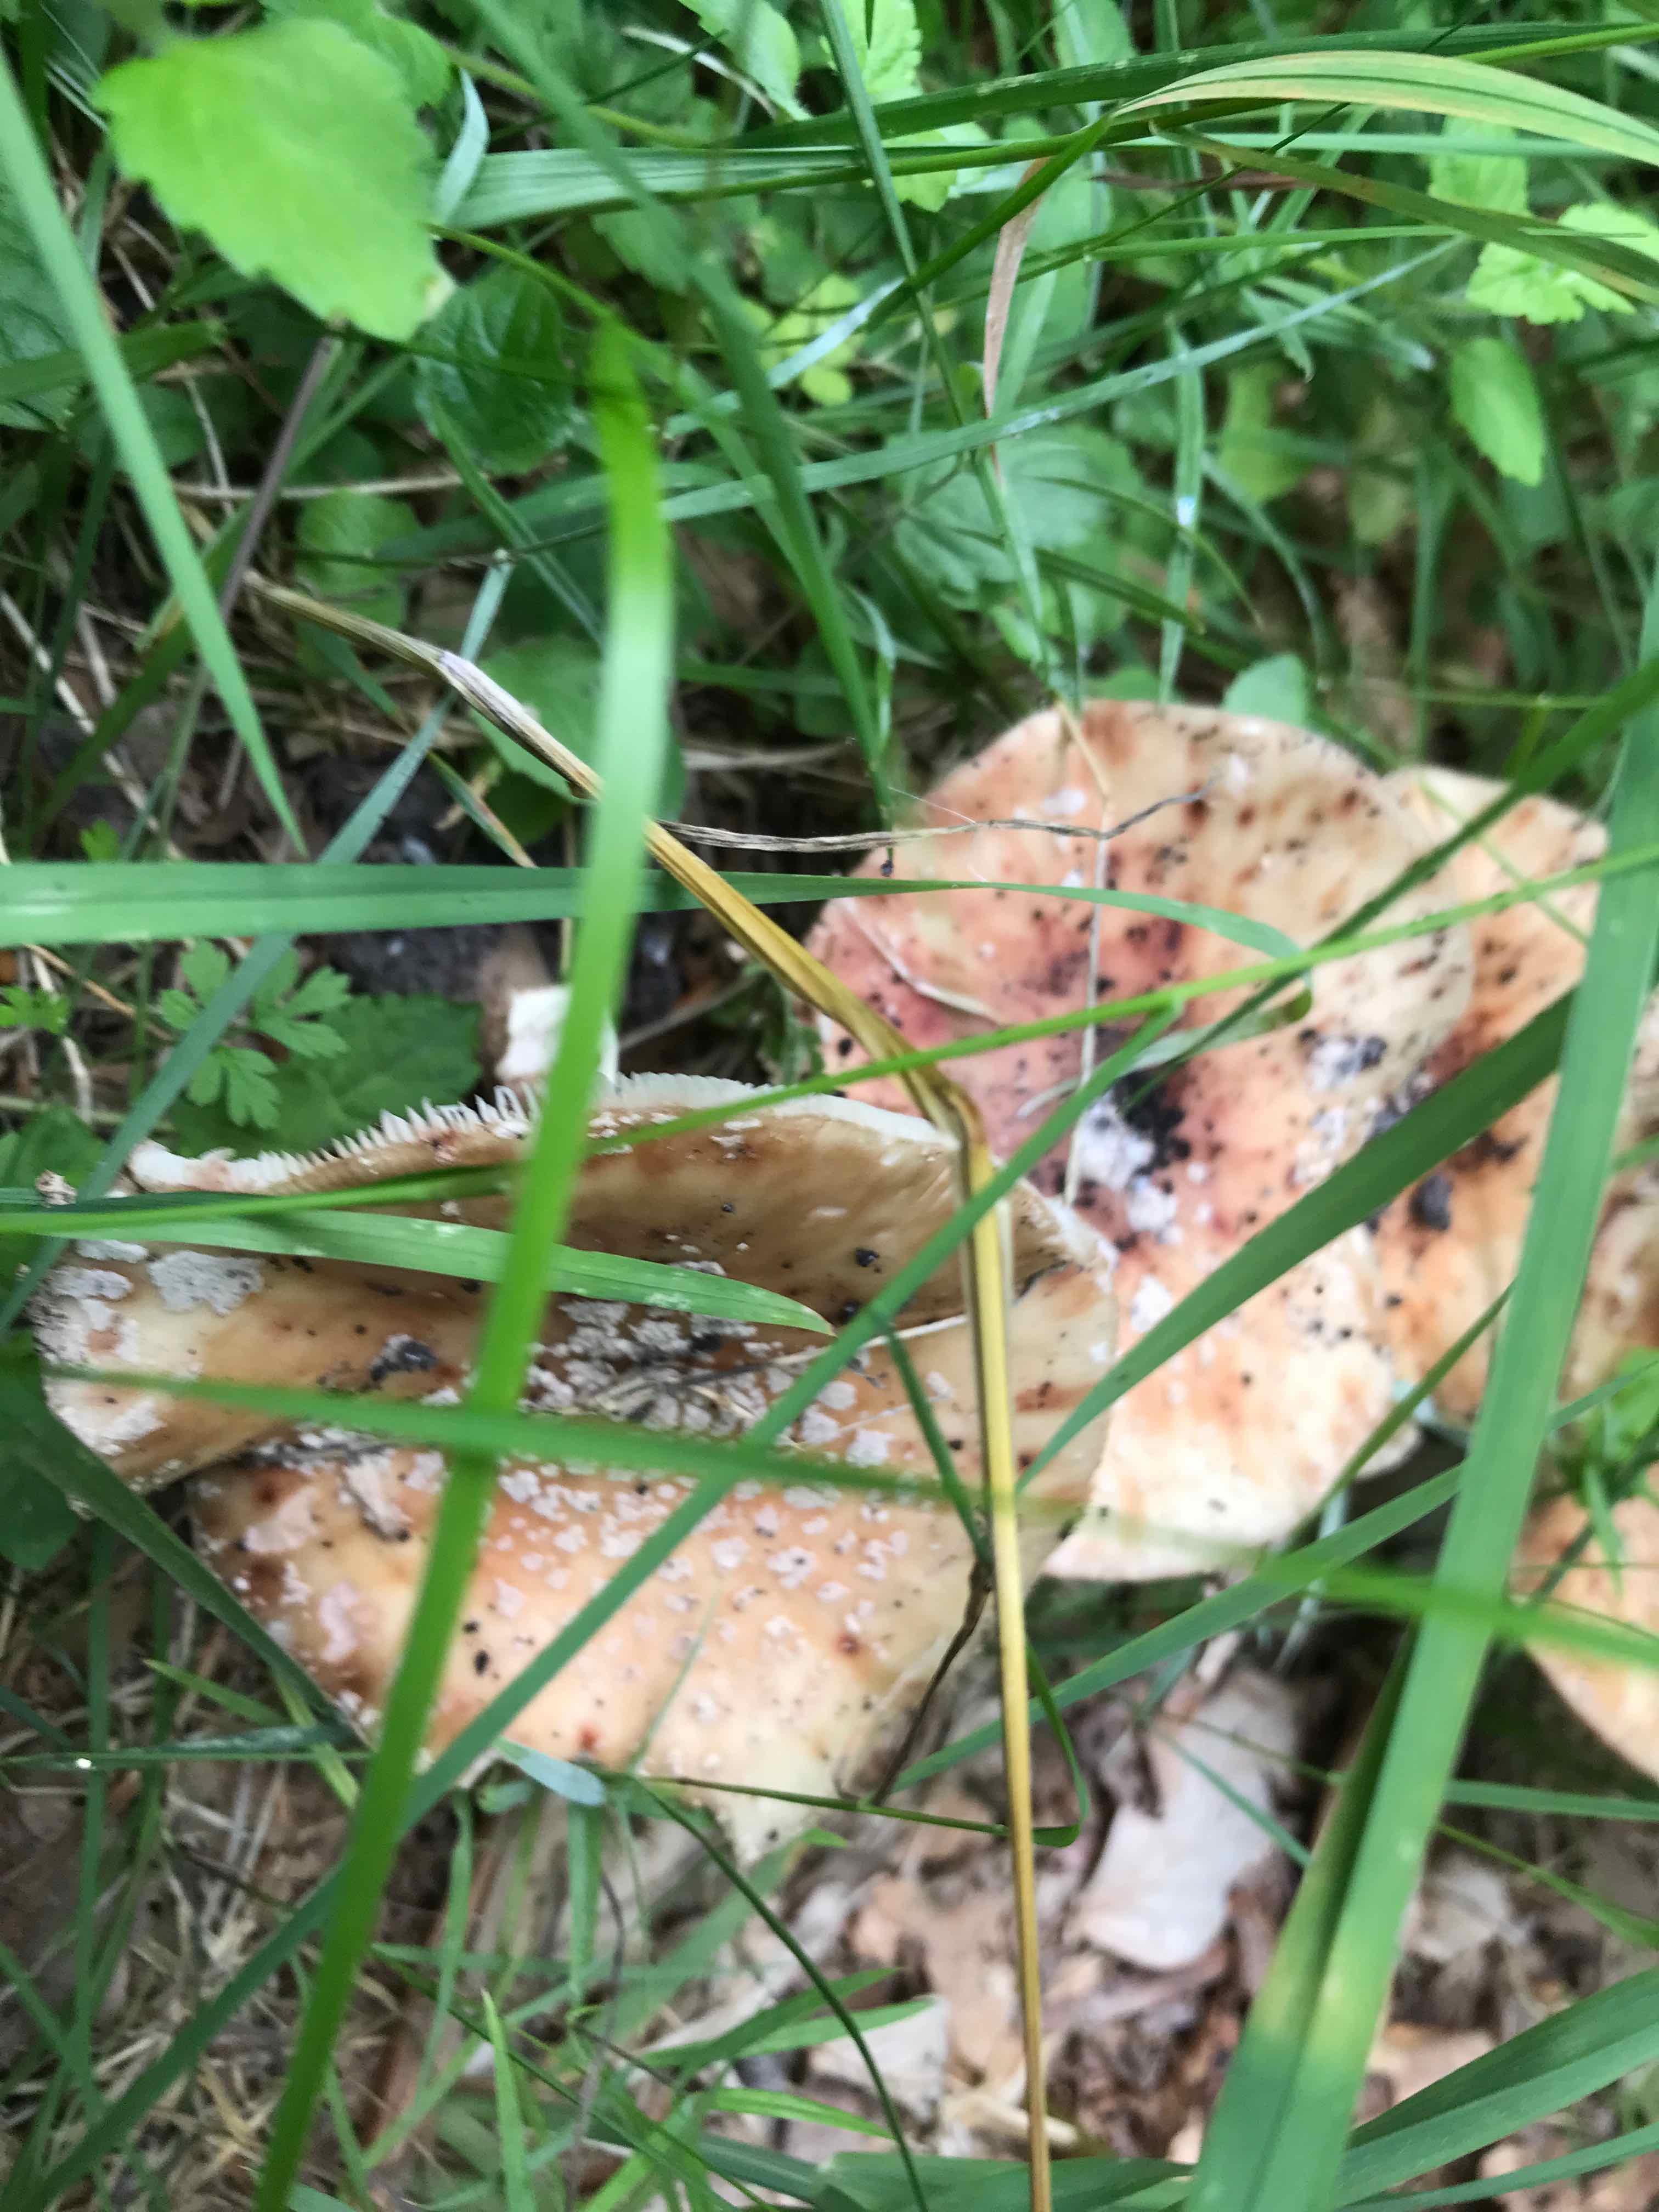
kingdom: Fungi
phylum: Basidiomycota
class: Agaricomycetes
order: Agaricales
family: Amanitaceae
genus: Amanita
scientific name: Amanita rubescens
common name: rødmende fluesvamp
